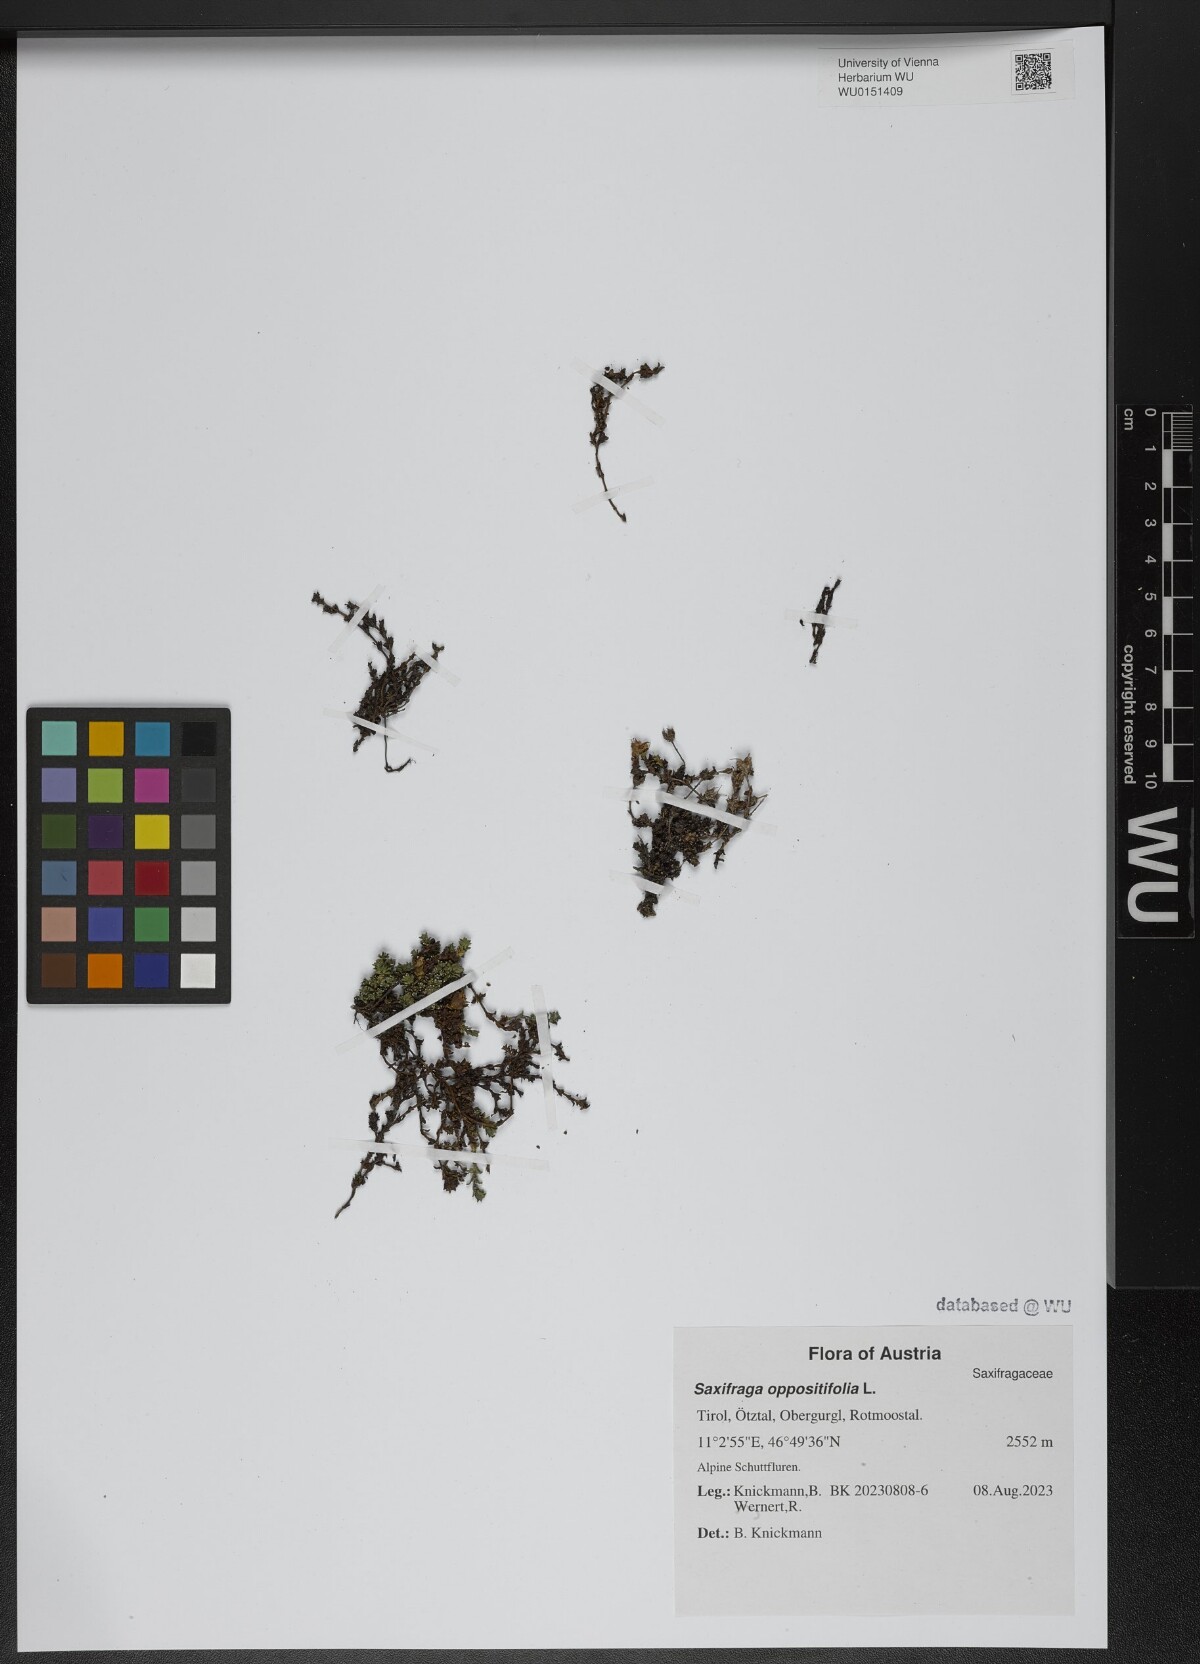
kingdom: Plantae
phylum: Tracheophyta
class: Magnoliopsida
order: Saxifragales
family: Saxifragaceae
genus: Saxifraga
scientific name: Saxifraga oppositifolia
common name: Purple saxifrage
